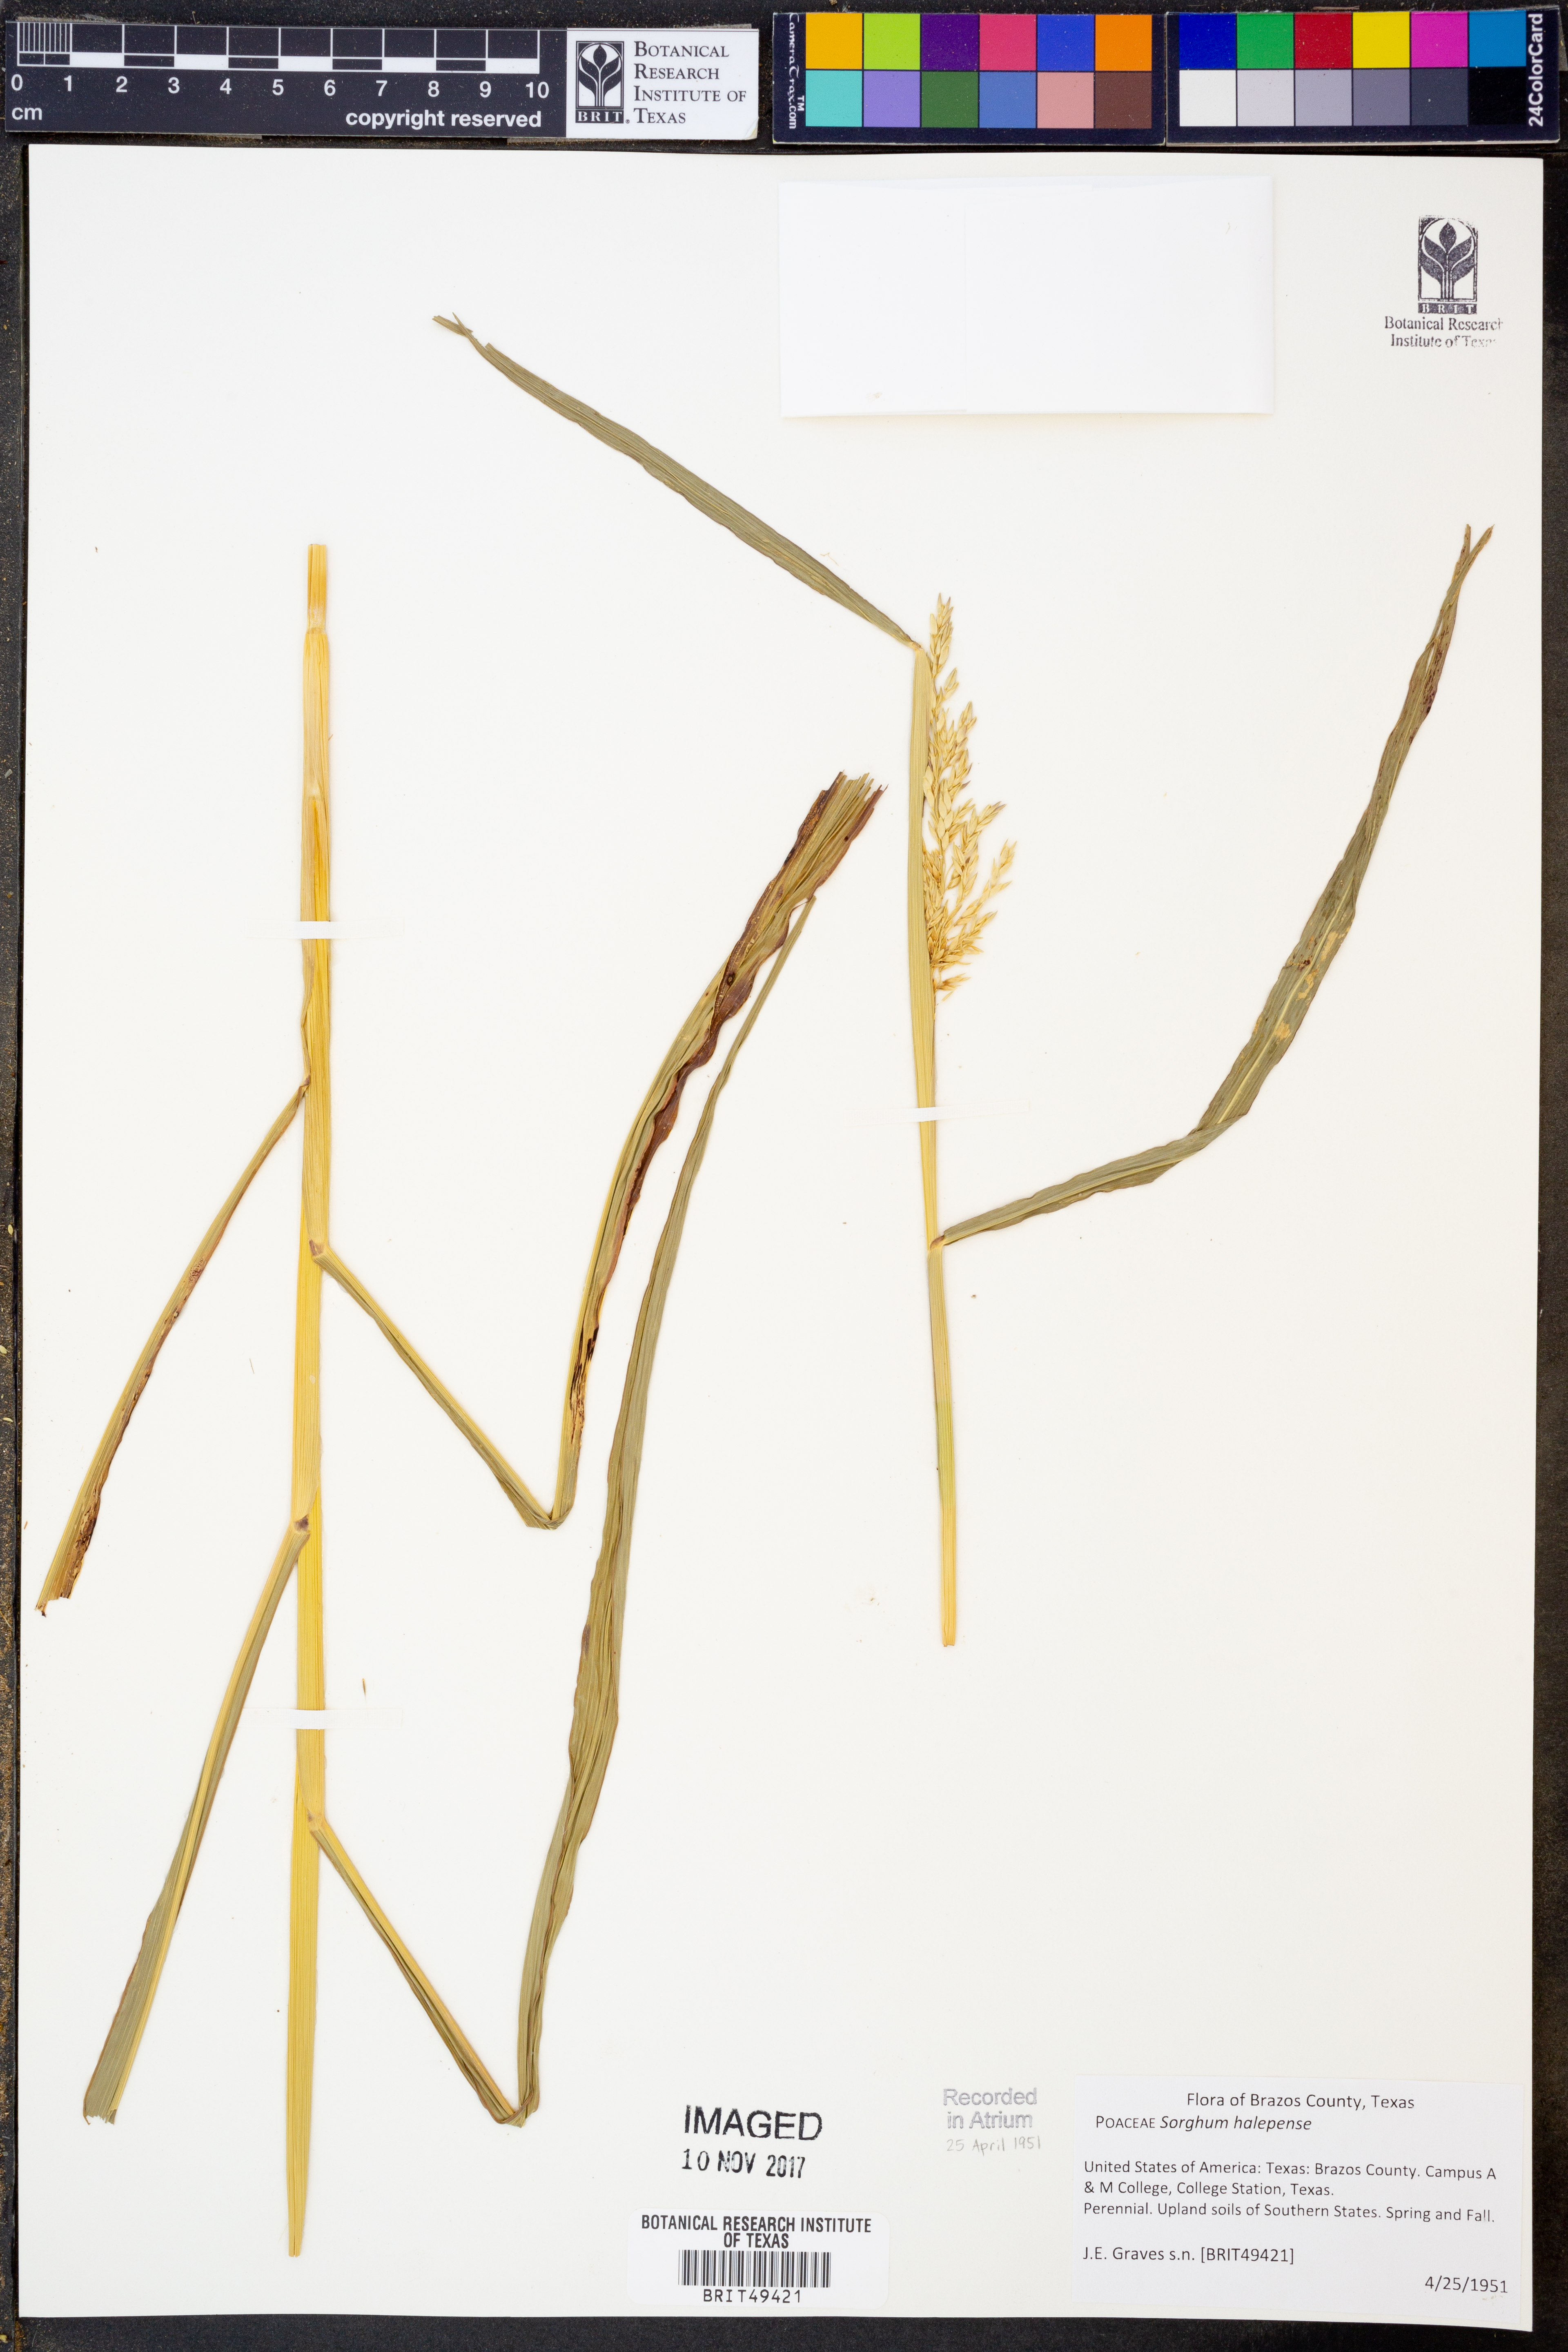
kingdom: Plantae
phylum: Tracheophyta
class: Liliopsida
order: Poales
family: Poaceae
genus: Sorghum
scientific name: Sorghum halepense
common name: Johnson-grass
